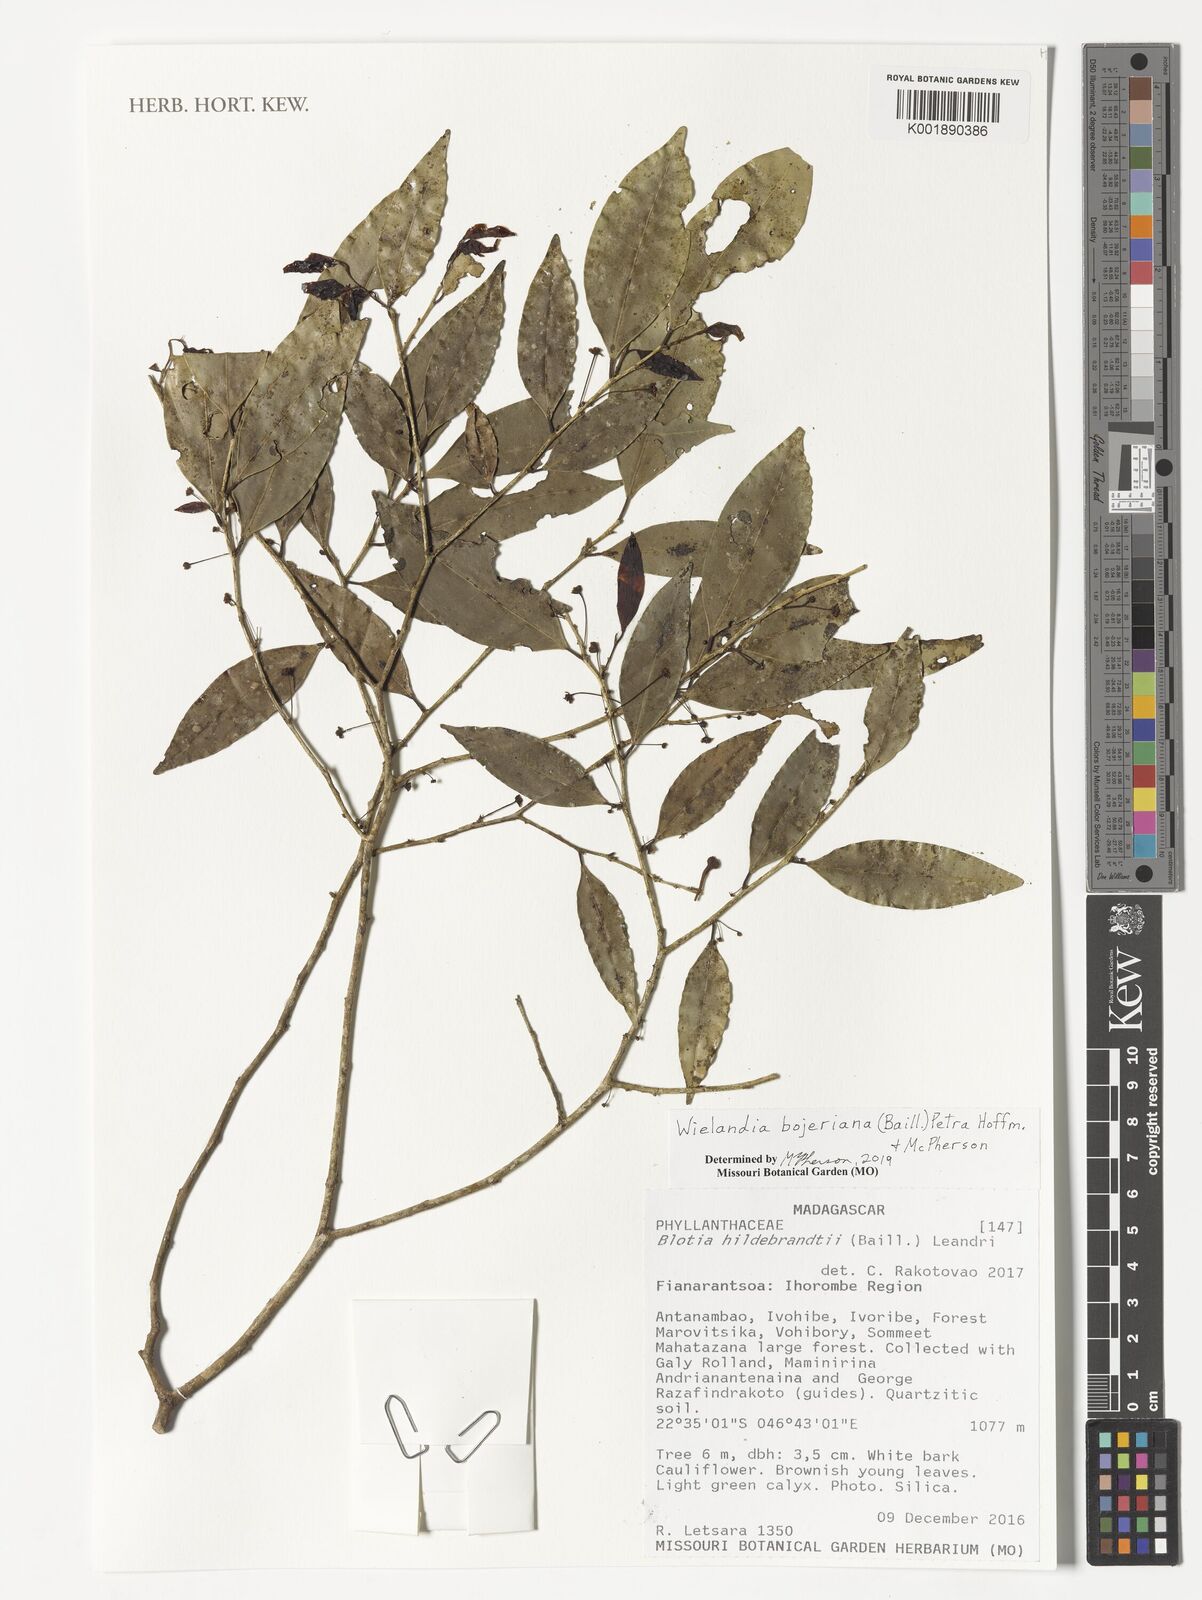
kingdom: Plantae
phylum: Tracheophyta
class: Magnoliopsida
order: Malpighiales
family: Phyllanthaceae
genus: Wielandia
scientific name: Wielandia bojeriana
